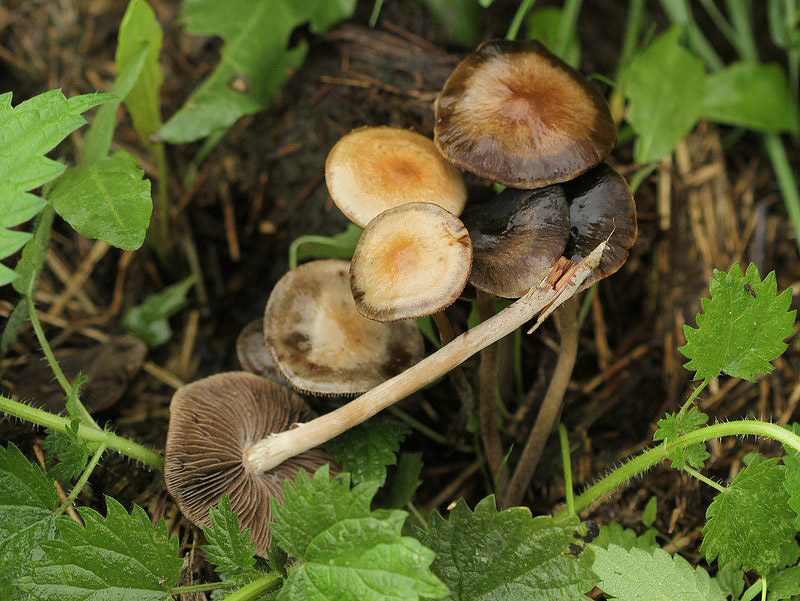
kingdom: Fungi
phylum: Basidiomycota
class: Agaricomycetes
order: Agaricales
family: Bolbitiaceae
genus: Panaeolus
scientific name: Panaeolus cinctulus
